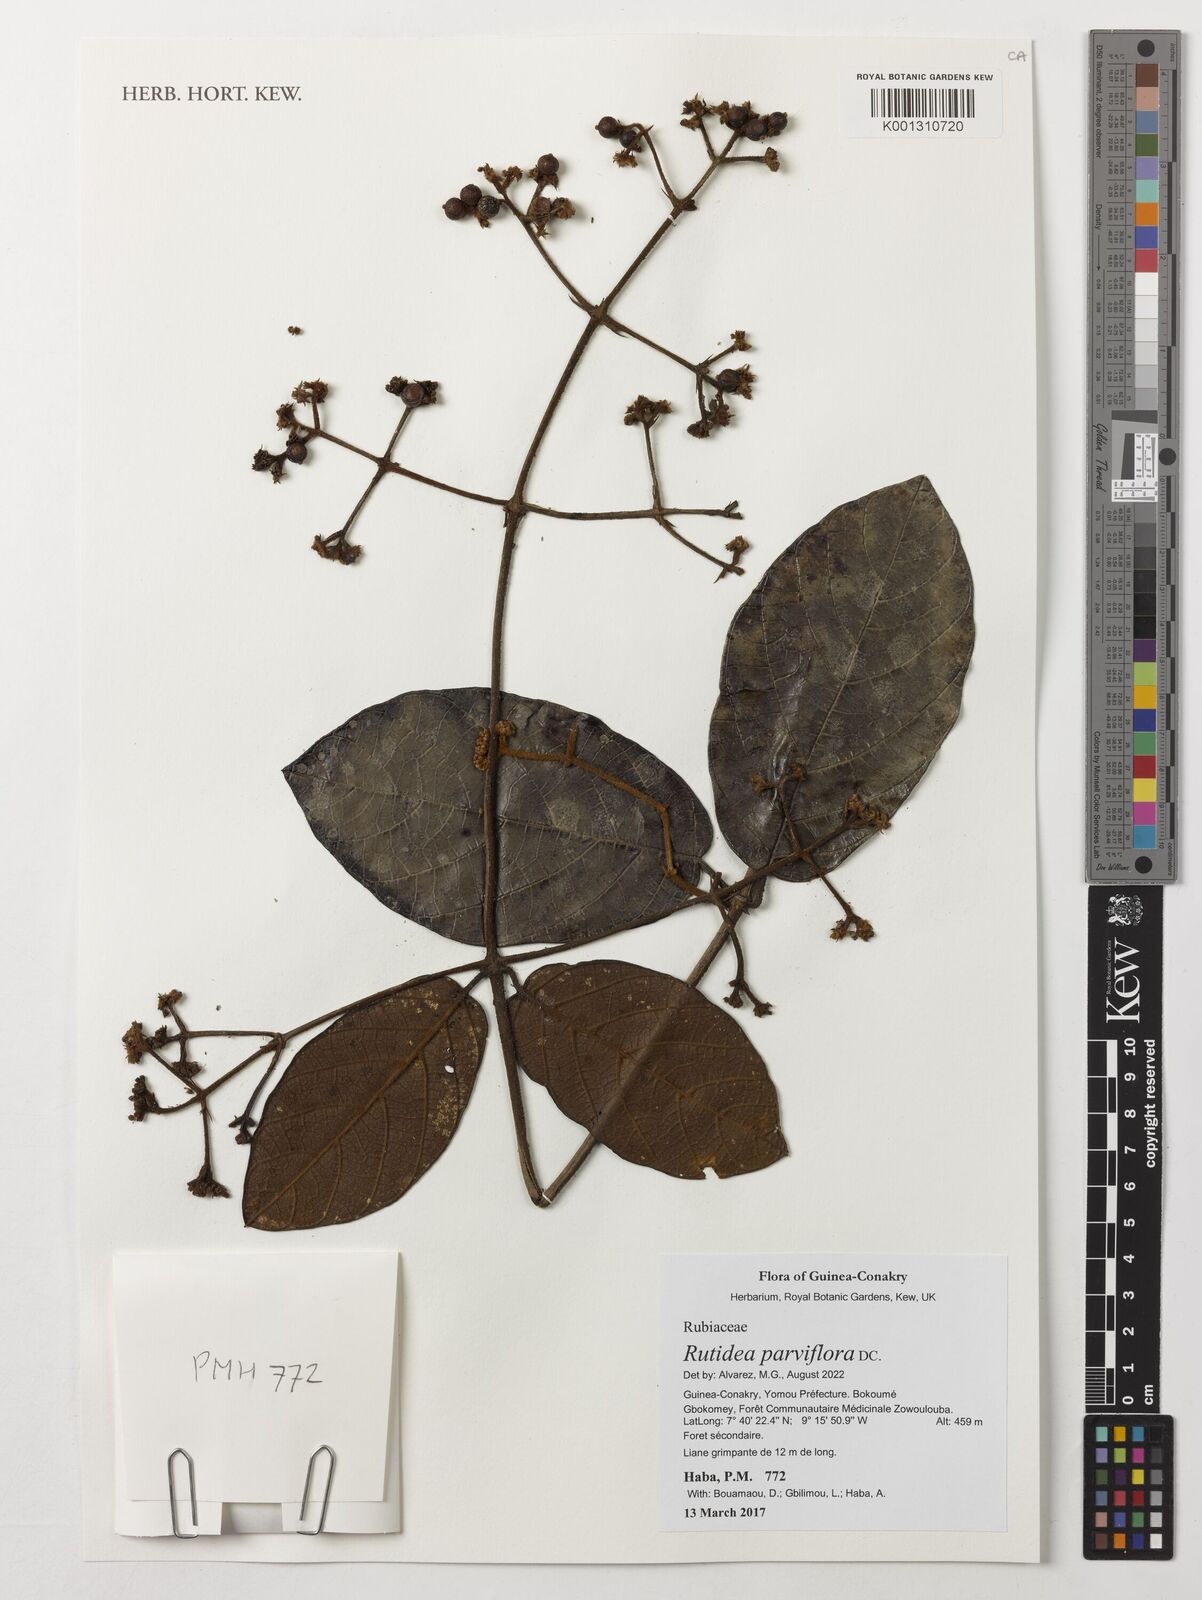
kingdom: Plantae
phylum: Tracheophyta
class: Magnoliopsida
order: Gentianales
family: Rubiaceae
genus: Rutidea
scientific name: Rutidea parviflora
